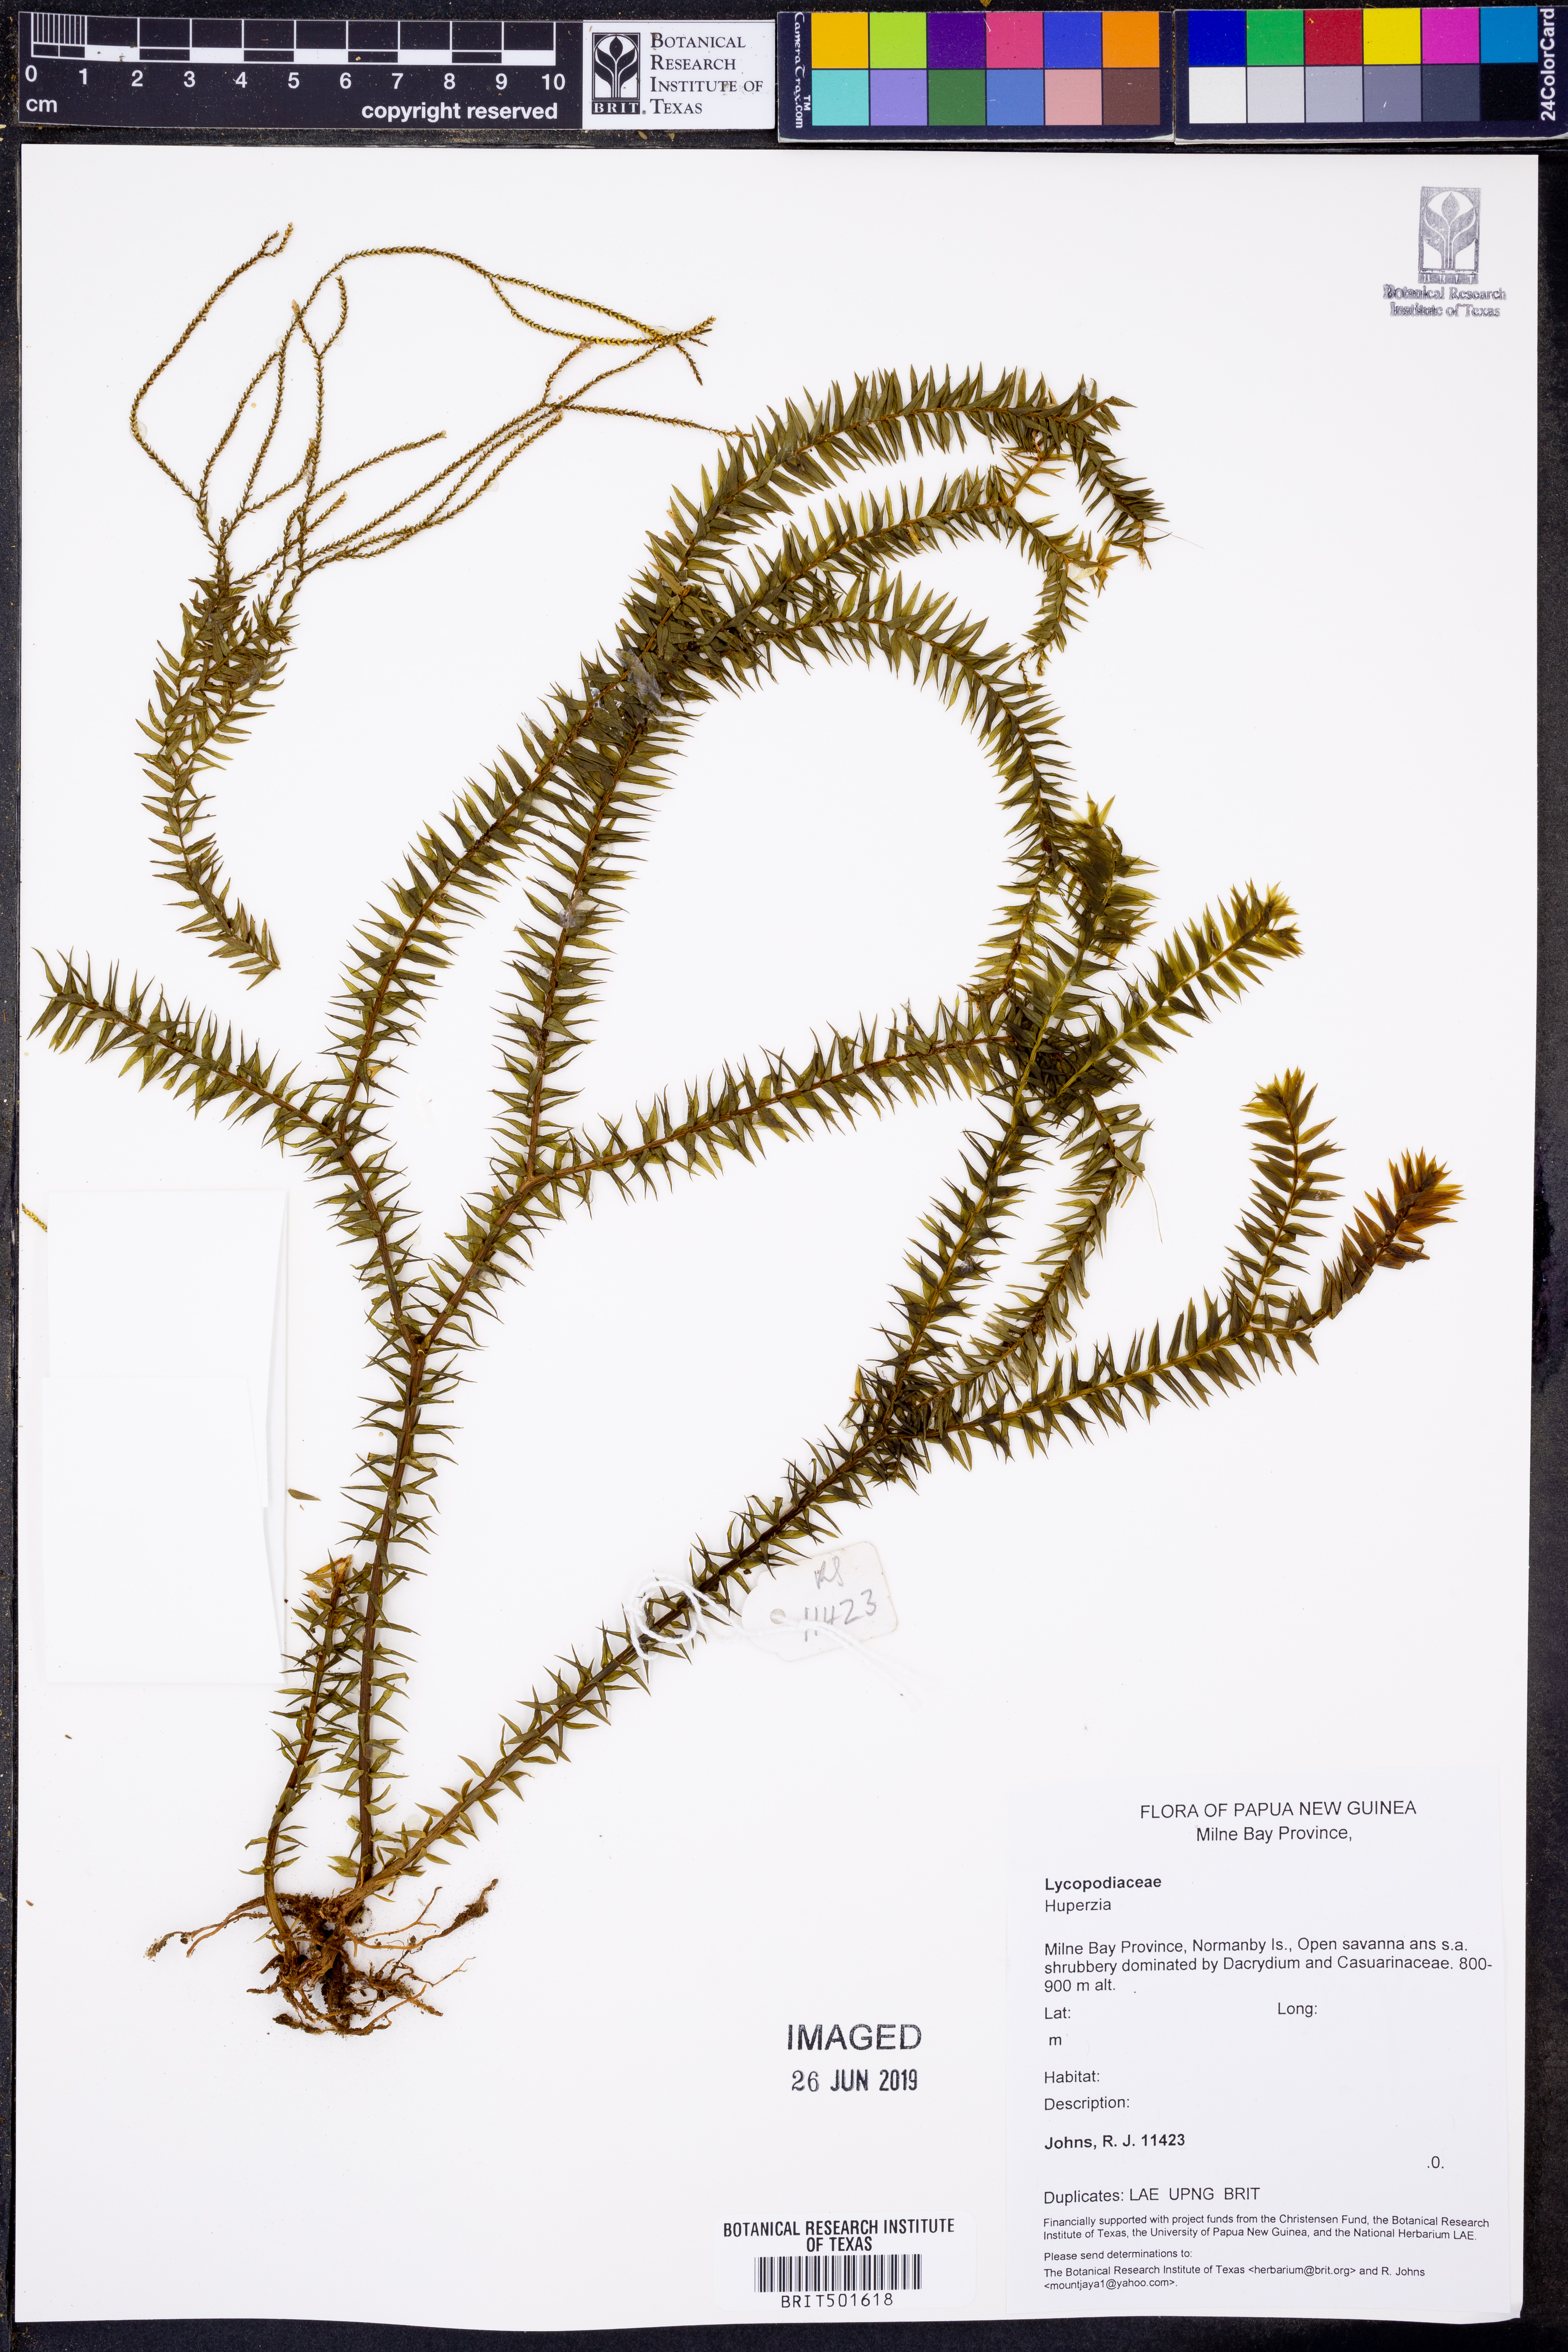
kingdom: Plantae
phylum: Tracheophyta
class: Lycopodiopsida
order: Lycopodiales
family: Lycopodiaceae
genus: Huperzia
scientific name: Huperzia
